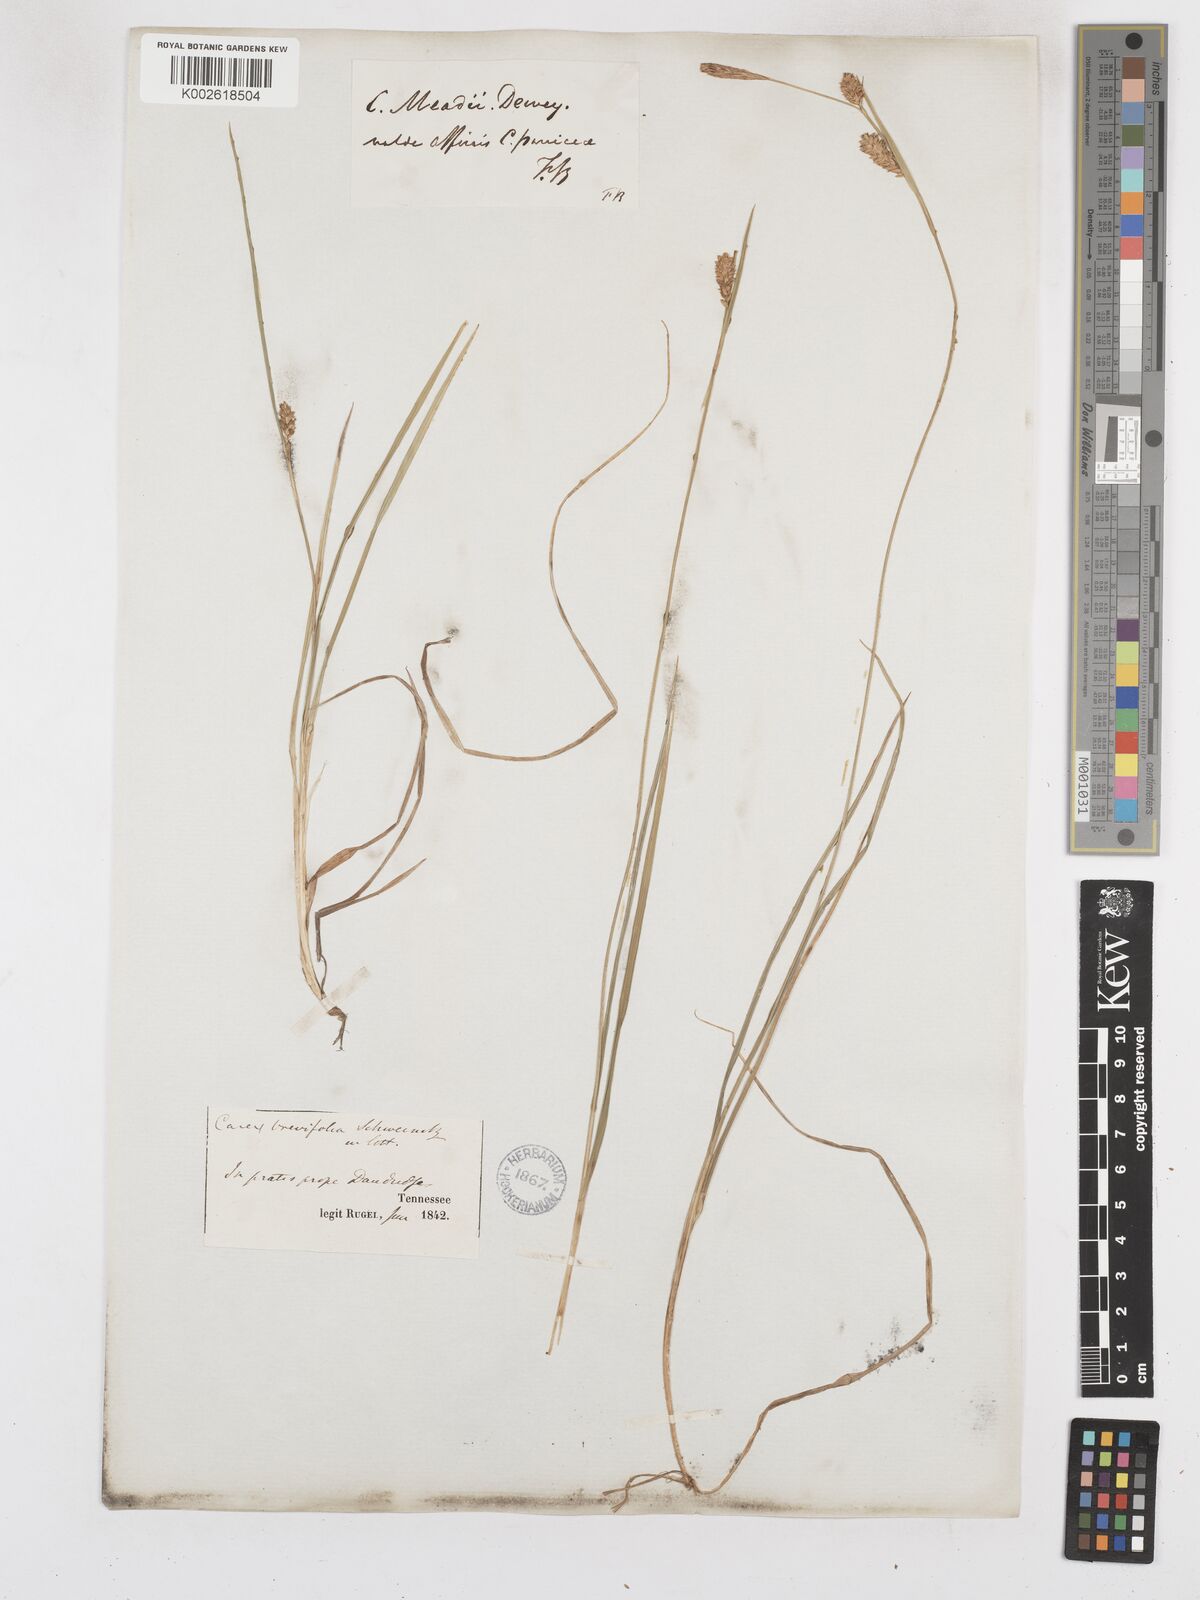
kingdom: Plantae
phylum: Tracheophyta
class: Liliopsida
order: Poales
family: Cyperaceae
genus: Carex
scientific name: Carex meadii
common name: Mead's sedge
